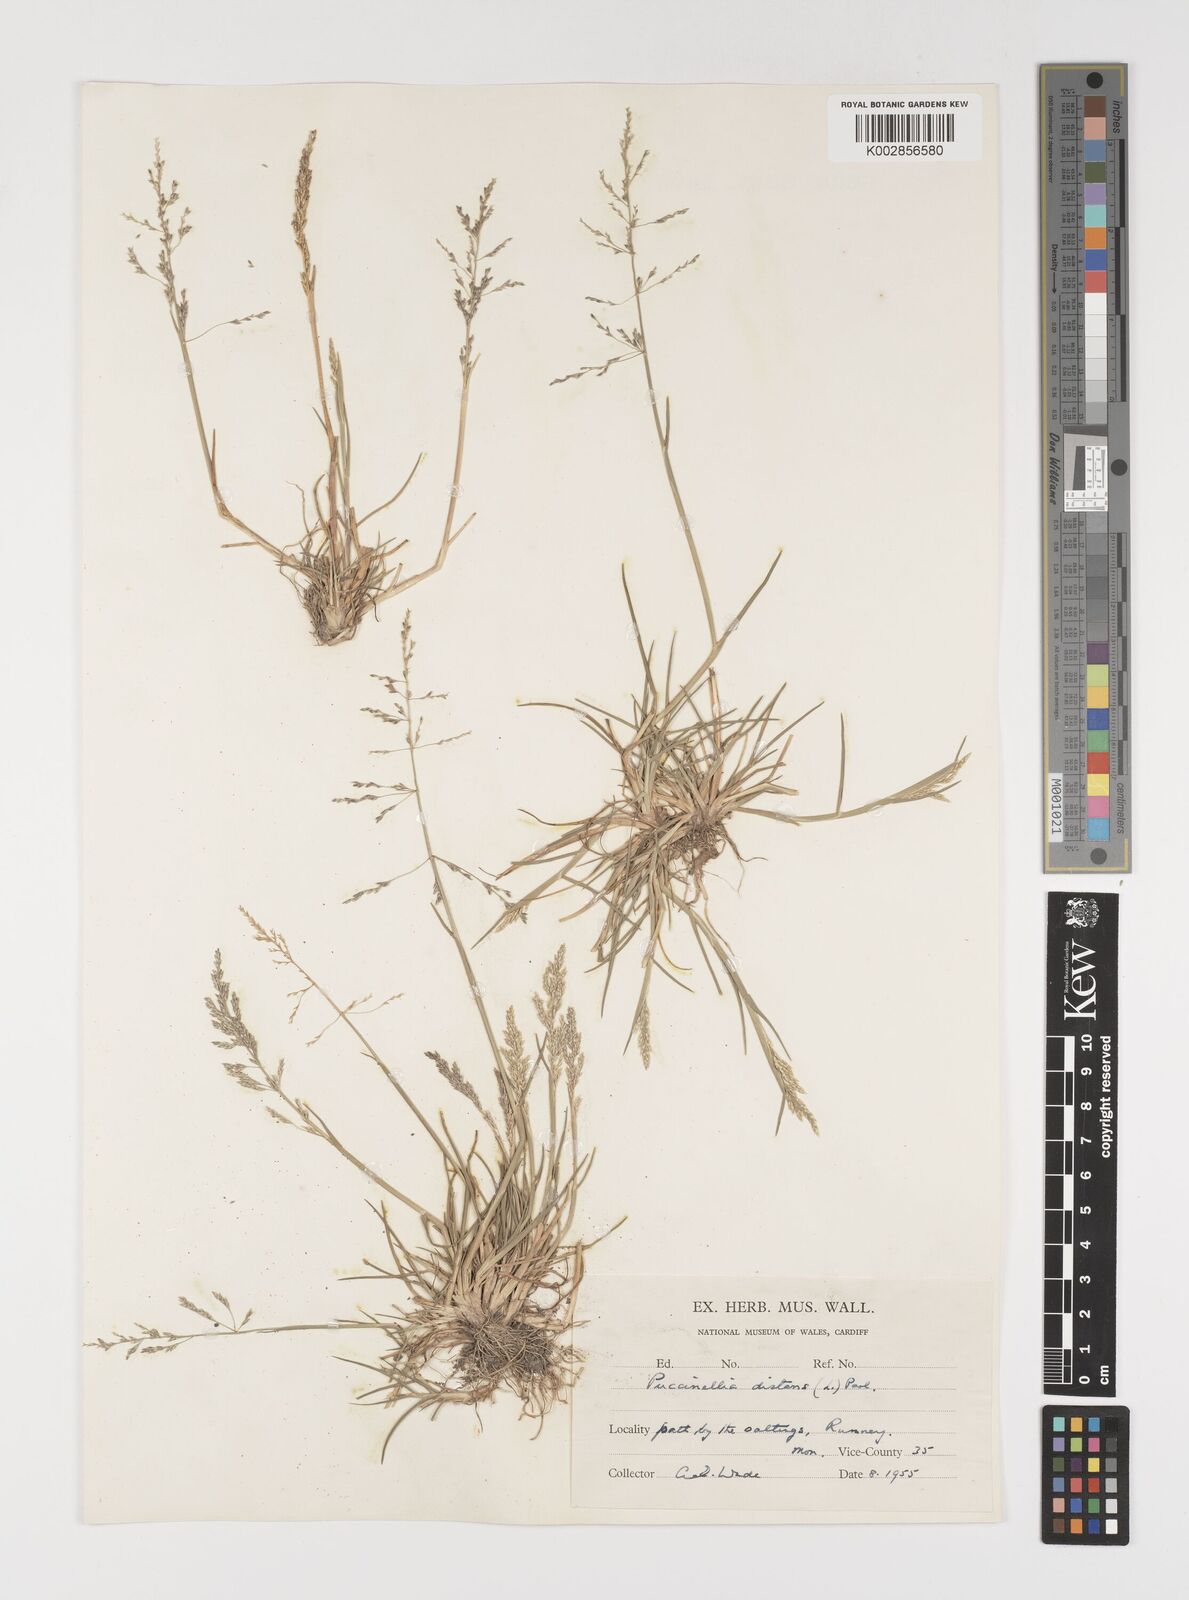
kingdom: Plantae
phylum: Tracheophyta
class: Liliopsida
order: Poales
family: Poaceae
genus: Puccinellia
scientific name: Puccinellia distans
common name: Weeping alkaligrass
